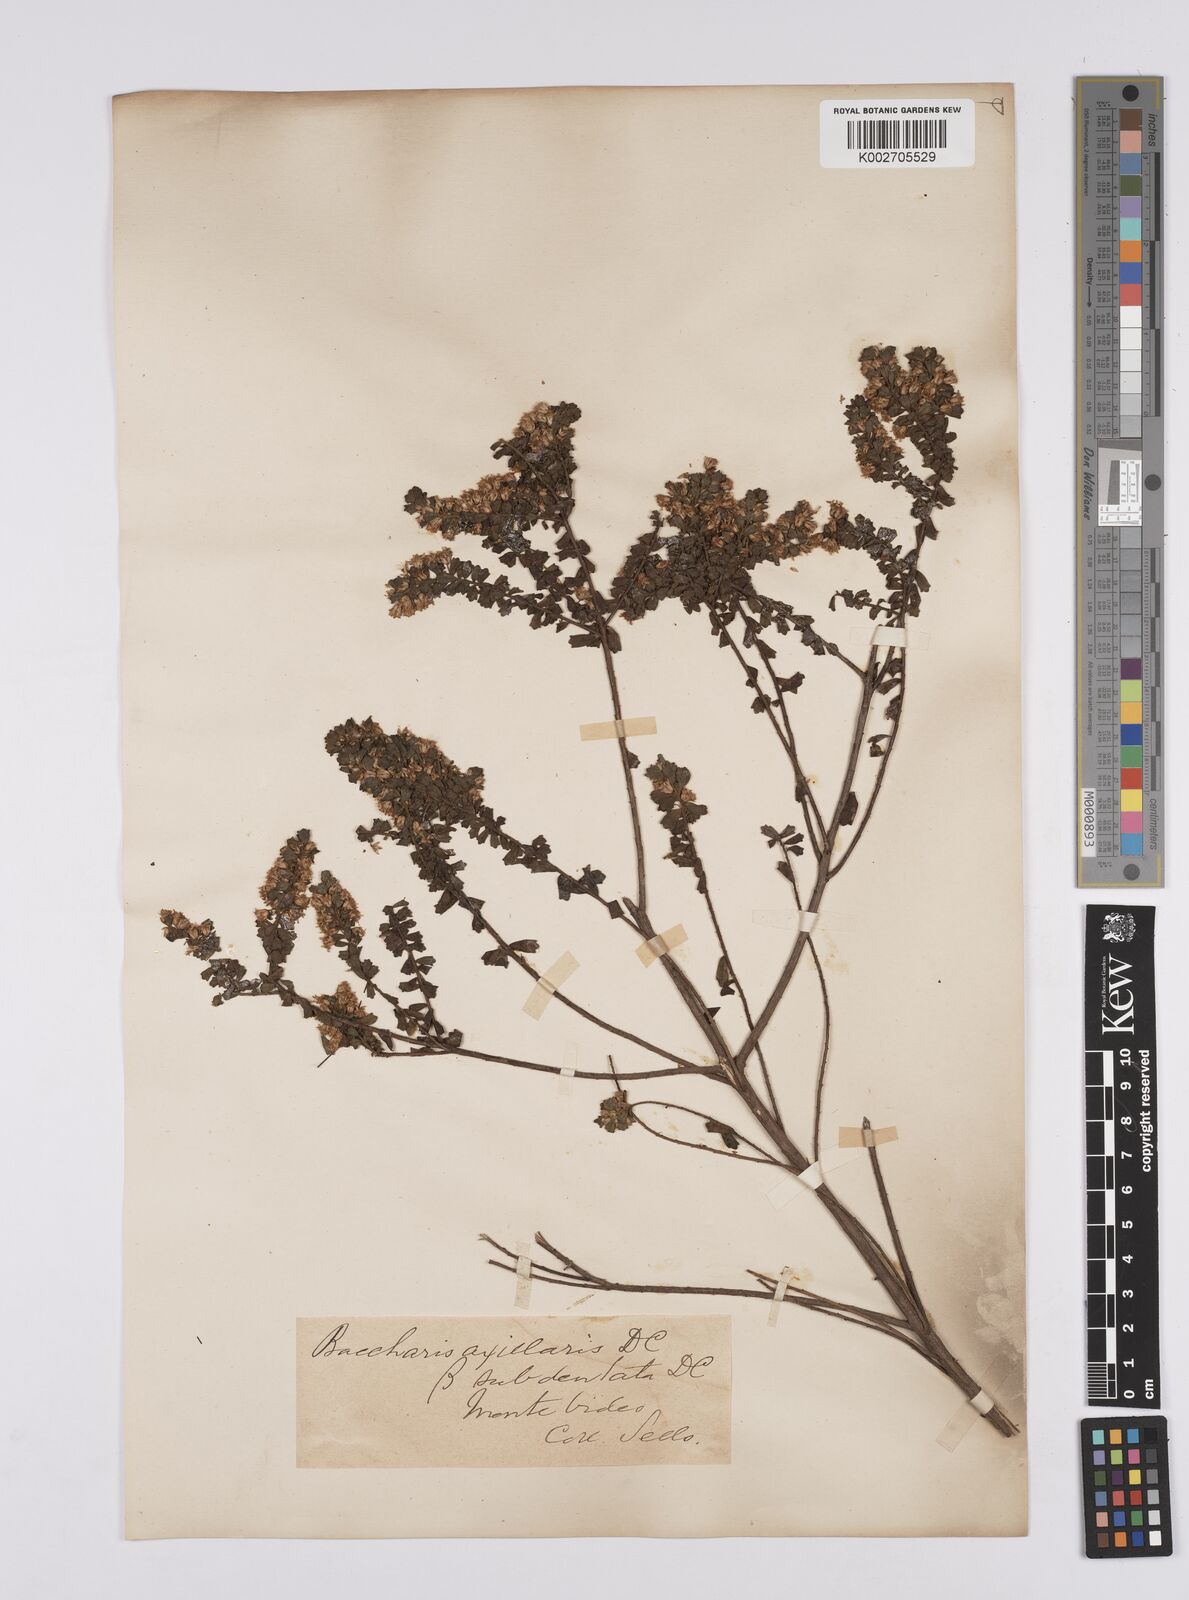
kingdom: Plantae
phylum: Tracheophyta
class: Magnoliopsida
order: Asterales
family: Asteraceae
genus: Baccharis
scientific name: Baccharis axillaris
